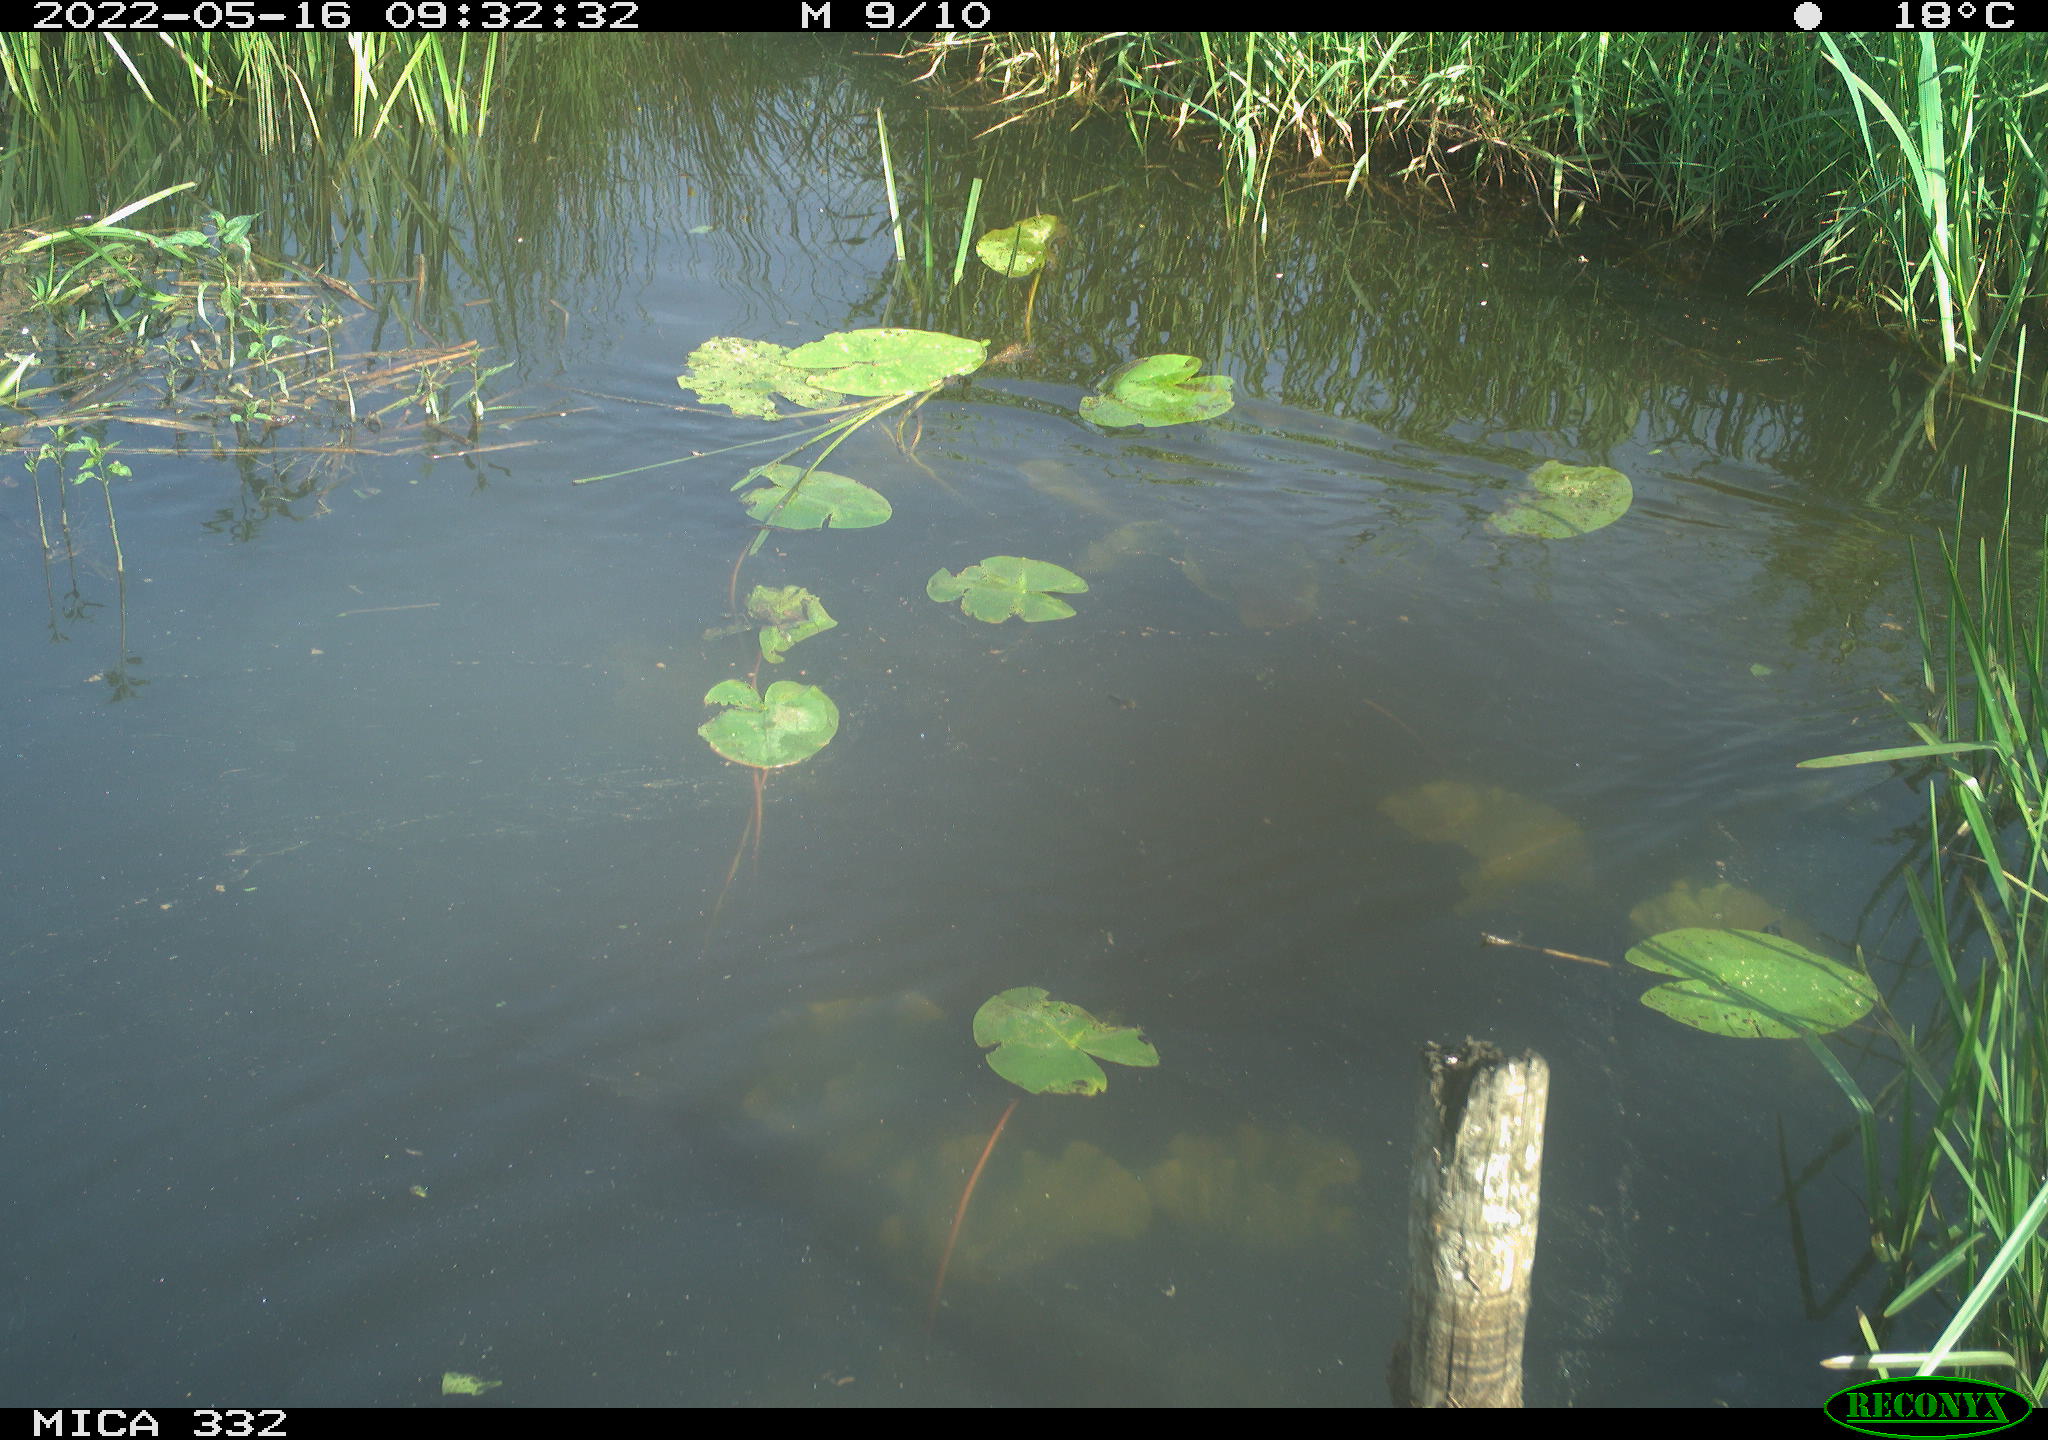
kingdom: Animalia
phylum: Chordata
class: Aves
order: Anseriformes
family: Anatidae
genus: Anas
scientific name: Anas platyrhynchos
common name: Mallard
